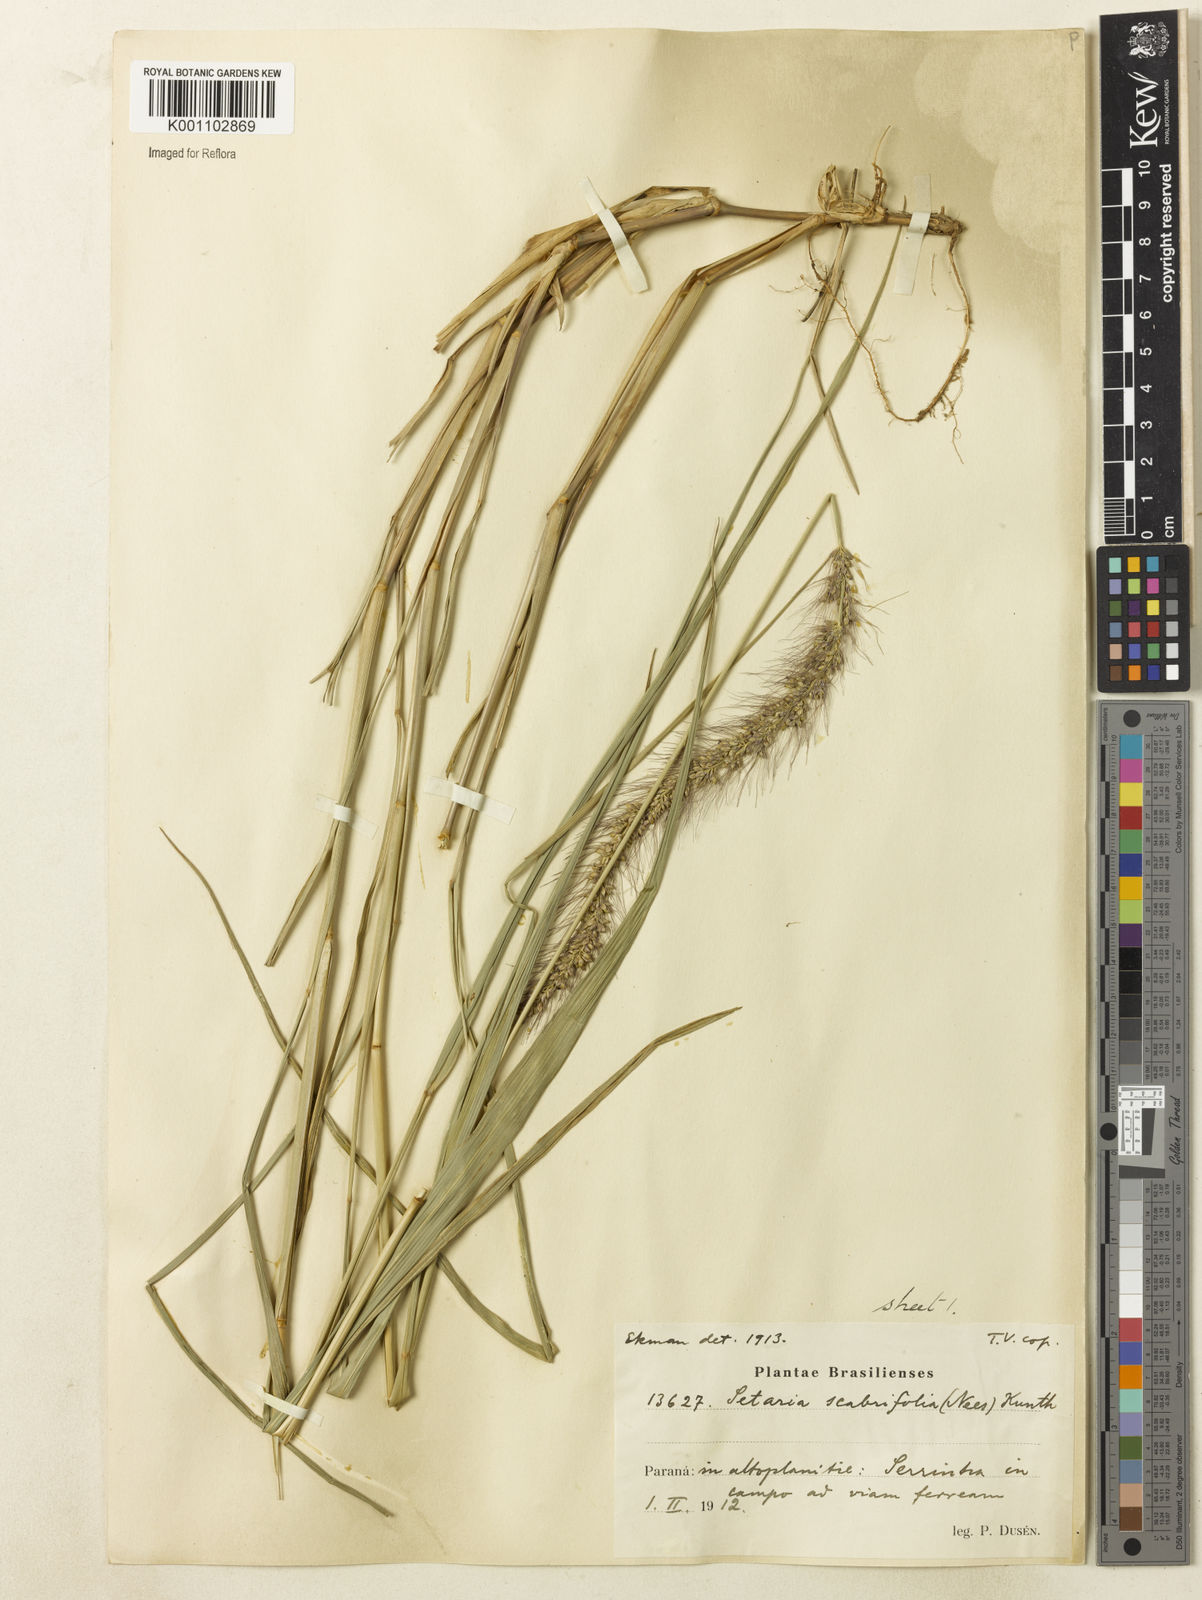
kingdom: Plantae
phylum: Tracheophyta
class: Liliopsida
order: Poales
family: Poaceae
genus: Setaria
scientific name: Setaria scabrifolia
